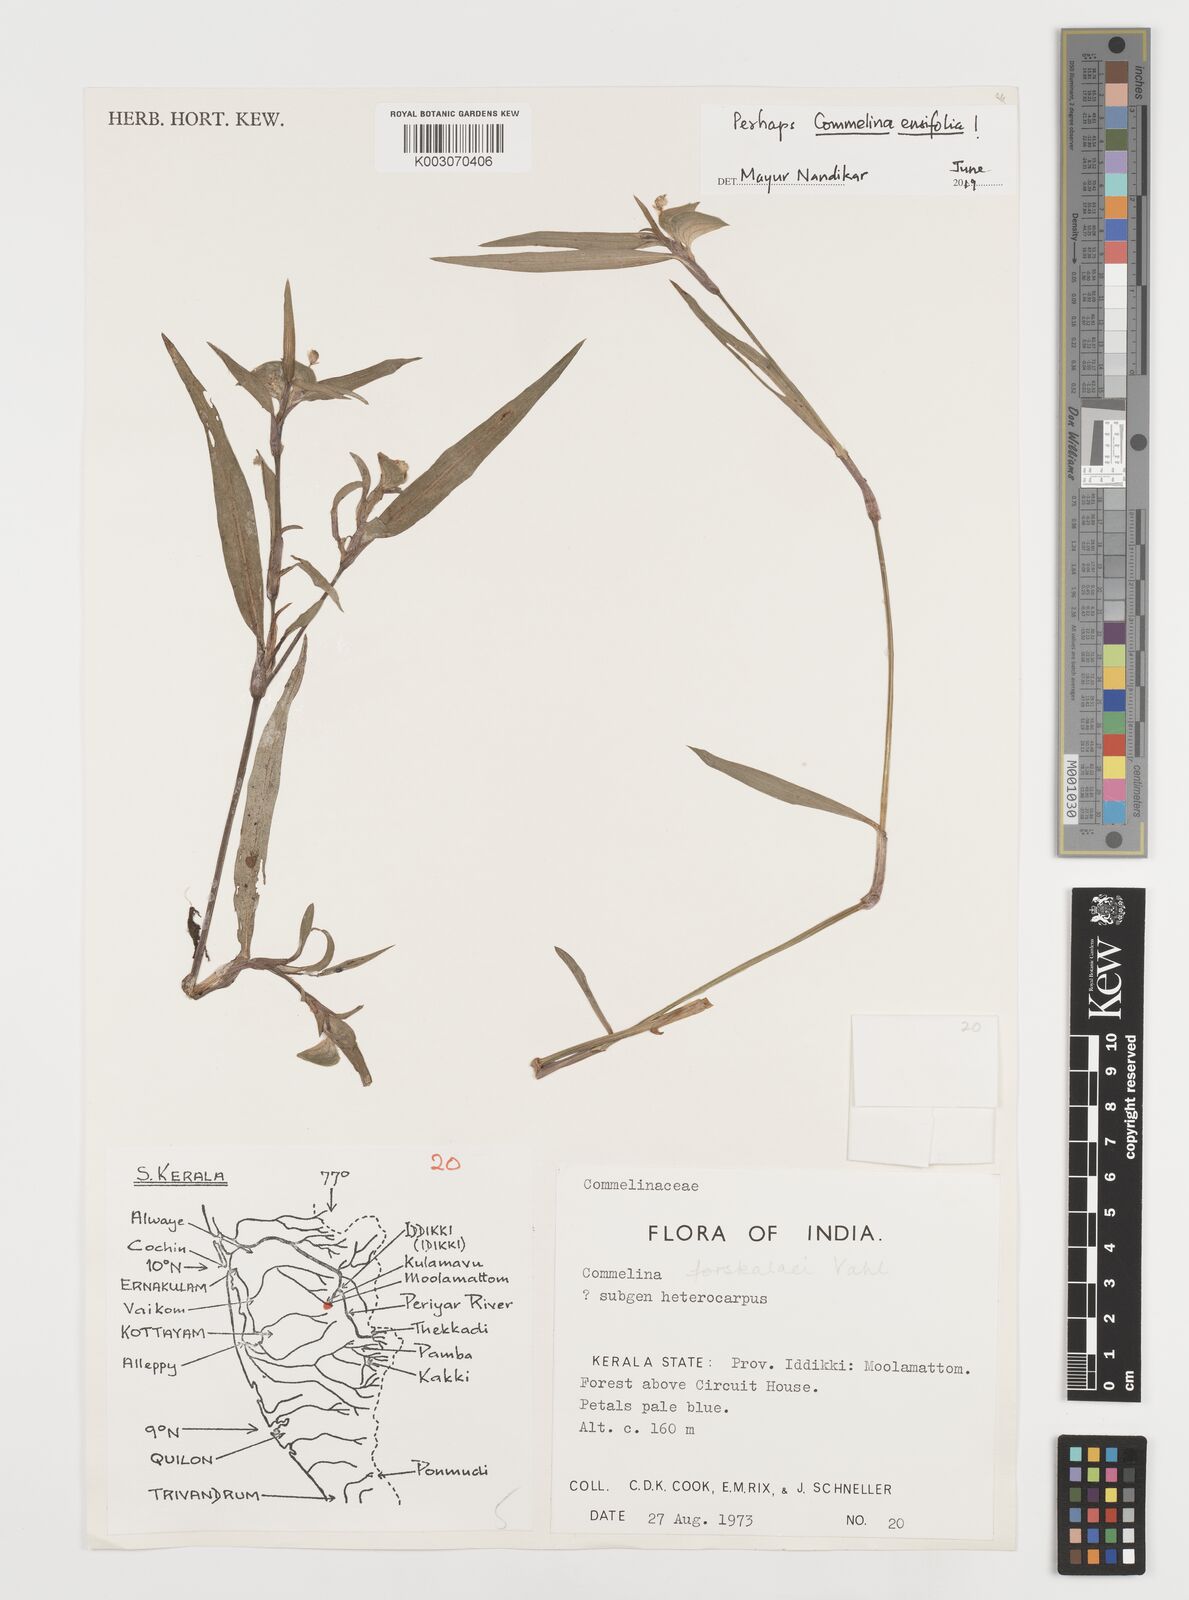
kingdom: Plantae
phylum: Tracheophyta
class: Liliopsida
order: Commelinales
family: Commelinaceae
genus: Commelina
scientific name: Commelina ensifolia
